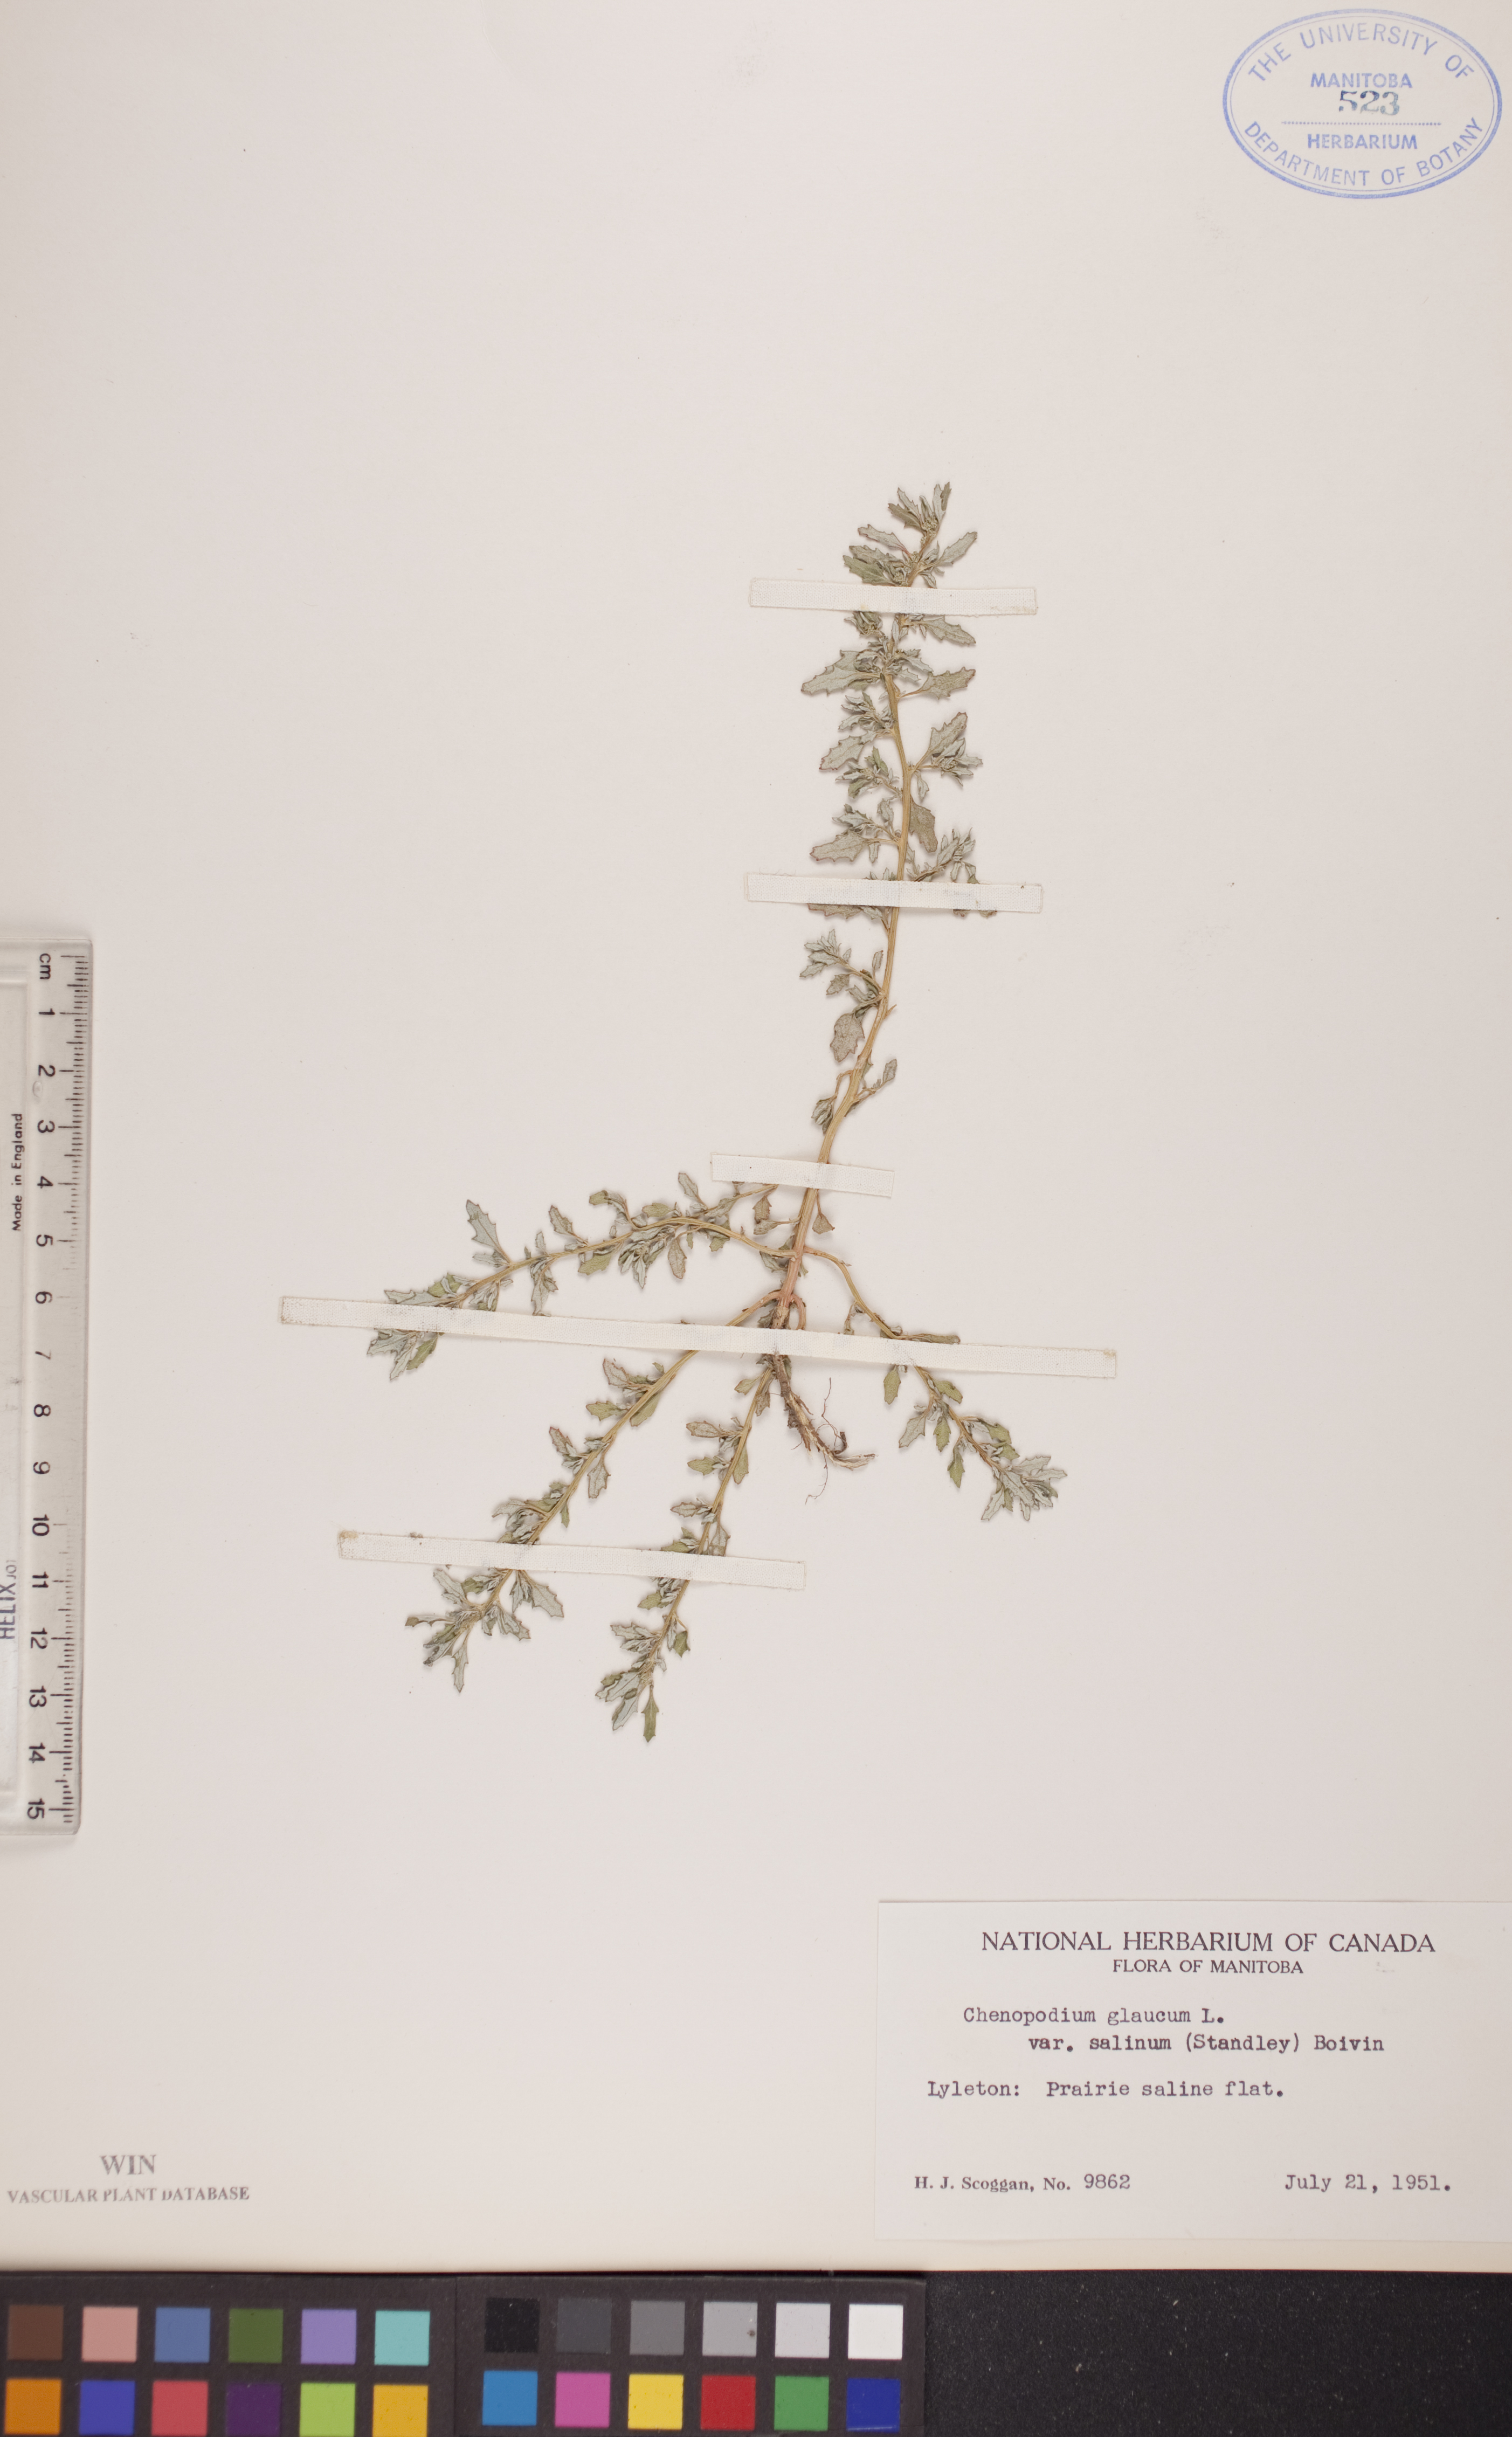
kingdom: Plantae
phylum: Tracheophyta
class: Magnoliopsida
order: Caryophyllales
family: Amaranthaceae
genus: Oxybasis
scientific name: Oxybasis salina
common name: Rocky mountain goosefoot
